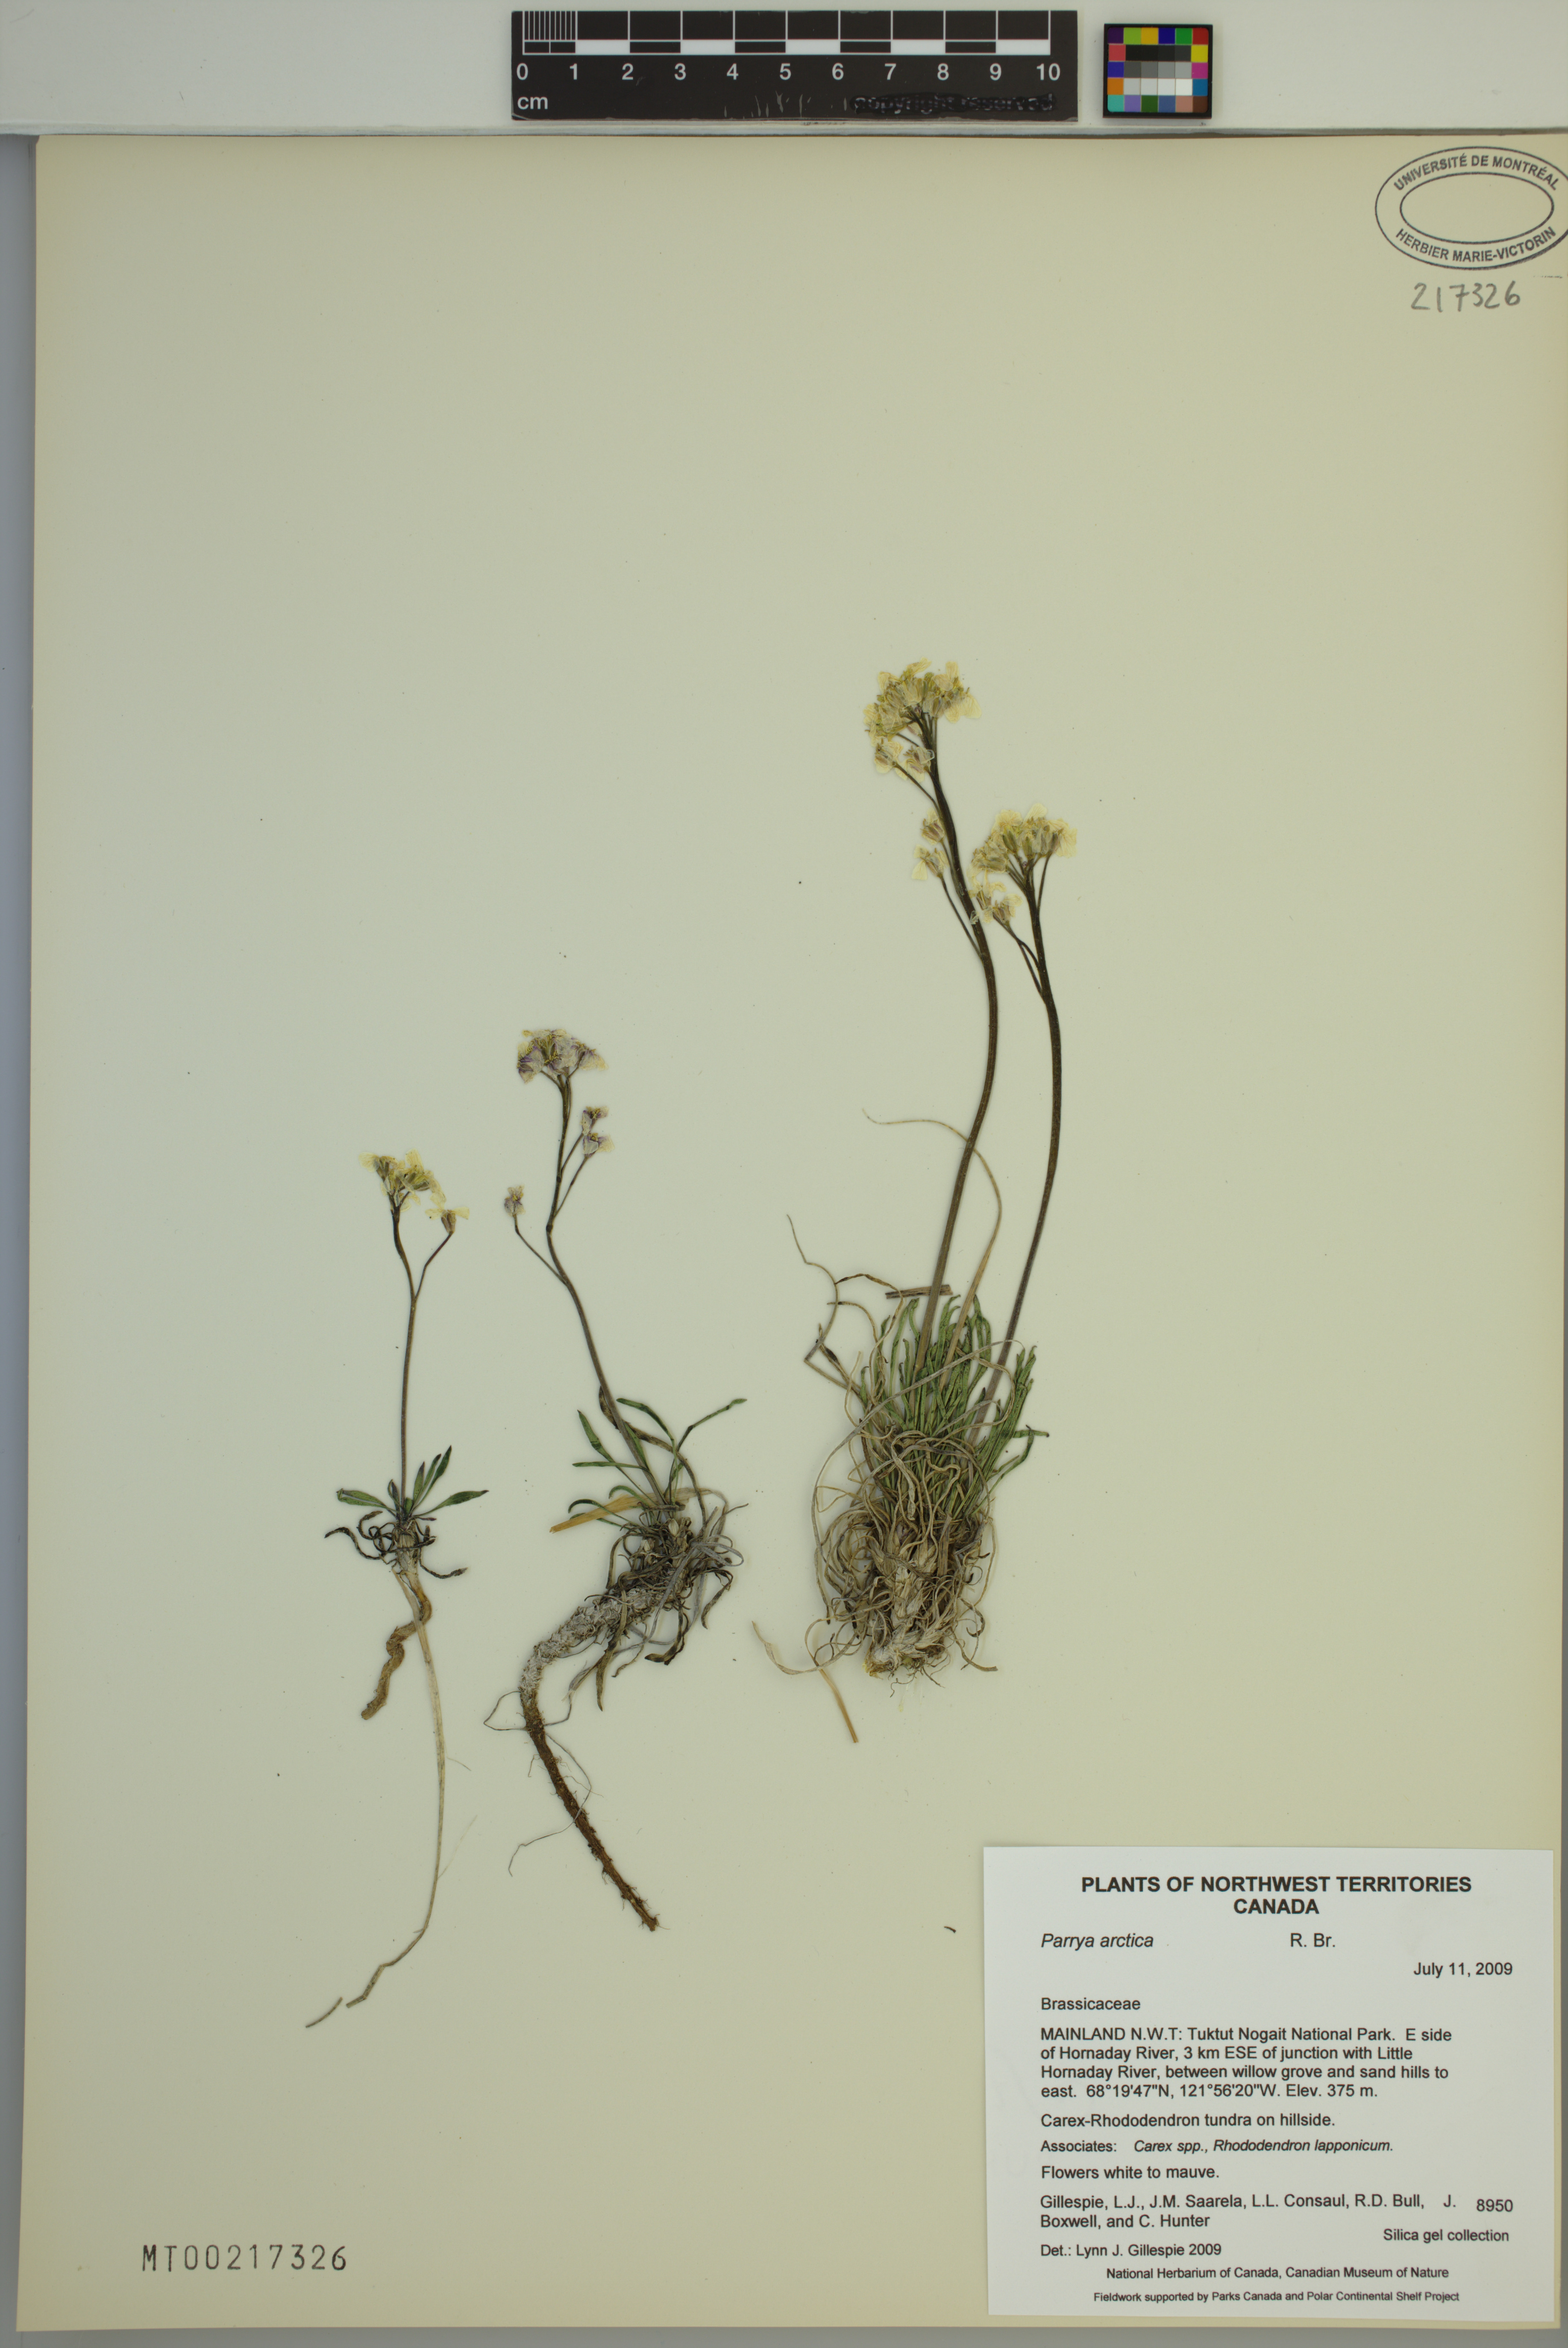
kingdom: Plantae
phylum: Tracheophyta
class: Magnoliopsida
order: Brassicales
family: Brassicaceae
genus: Parrya
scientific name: Parrya arctica
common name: Arctic false wallflower
